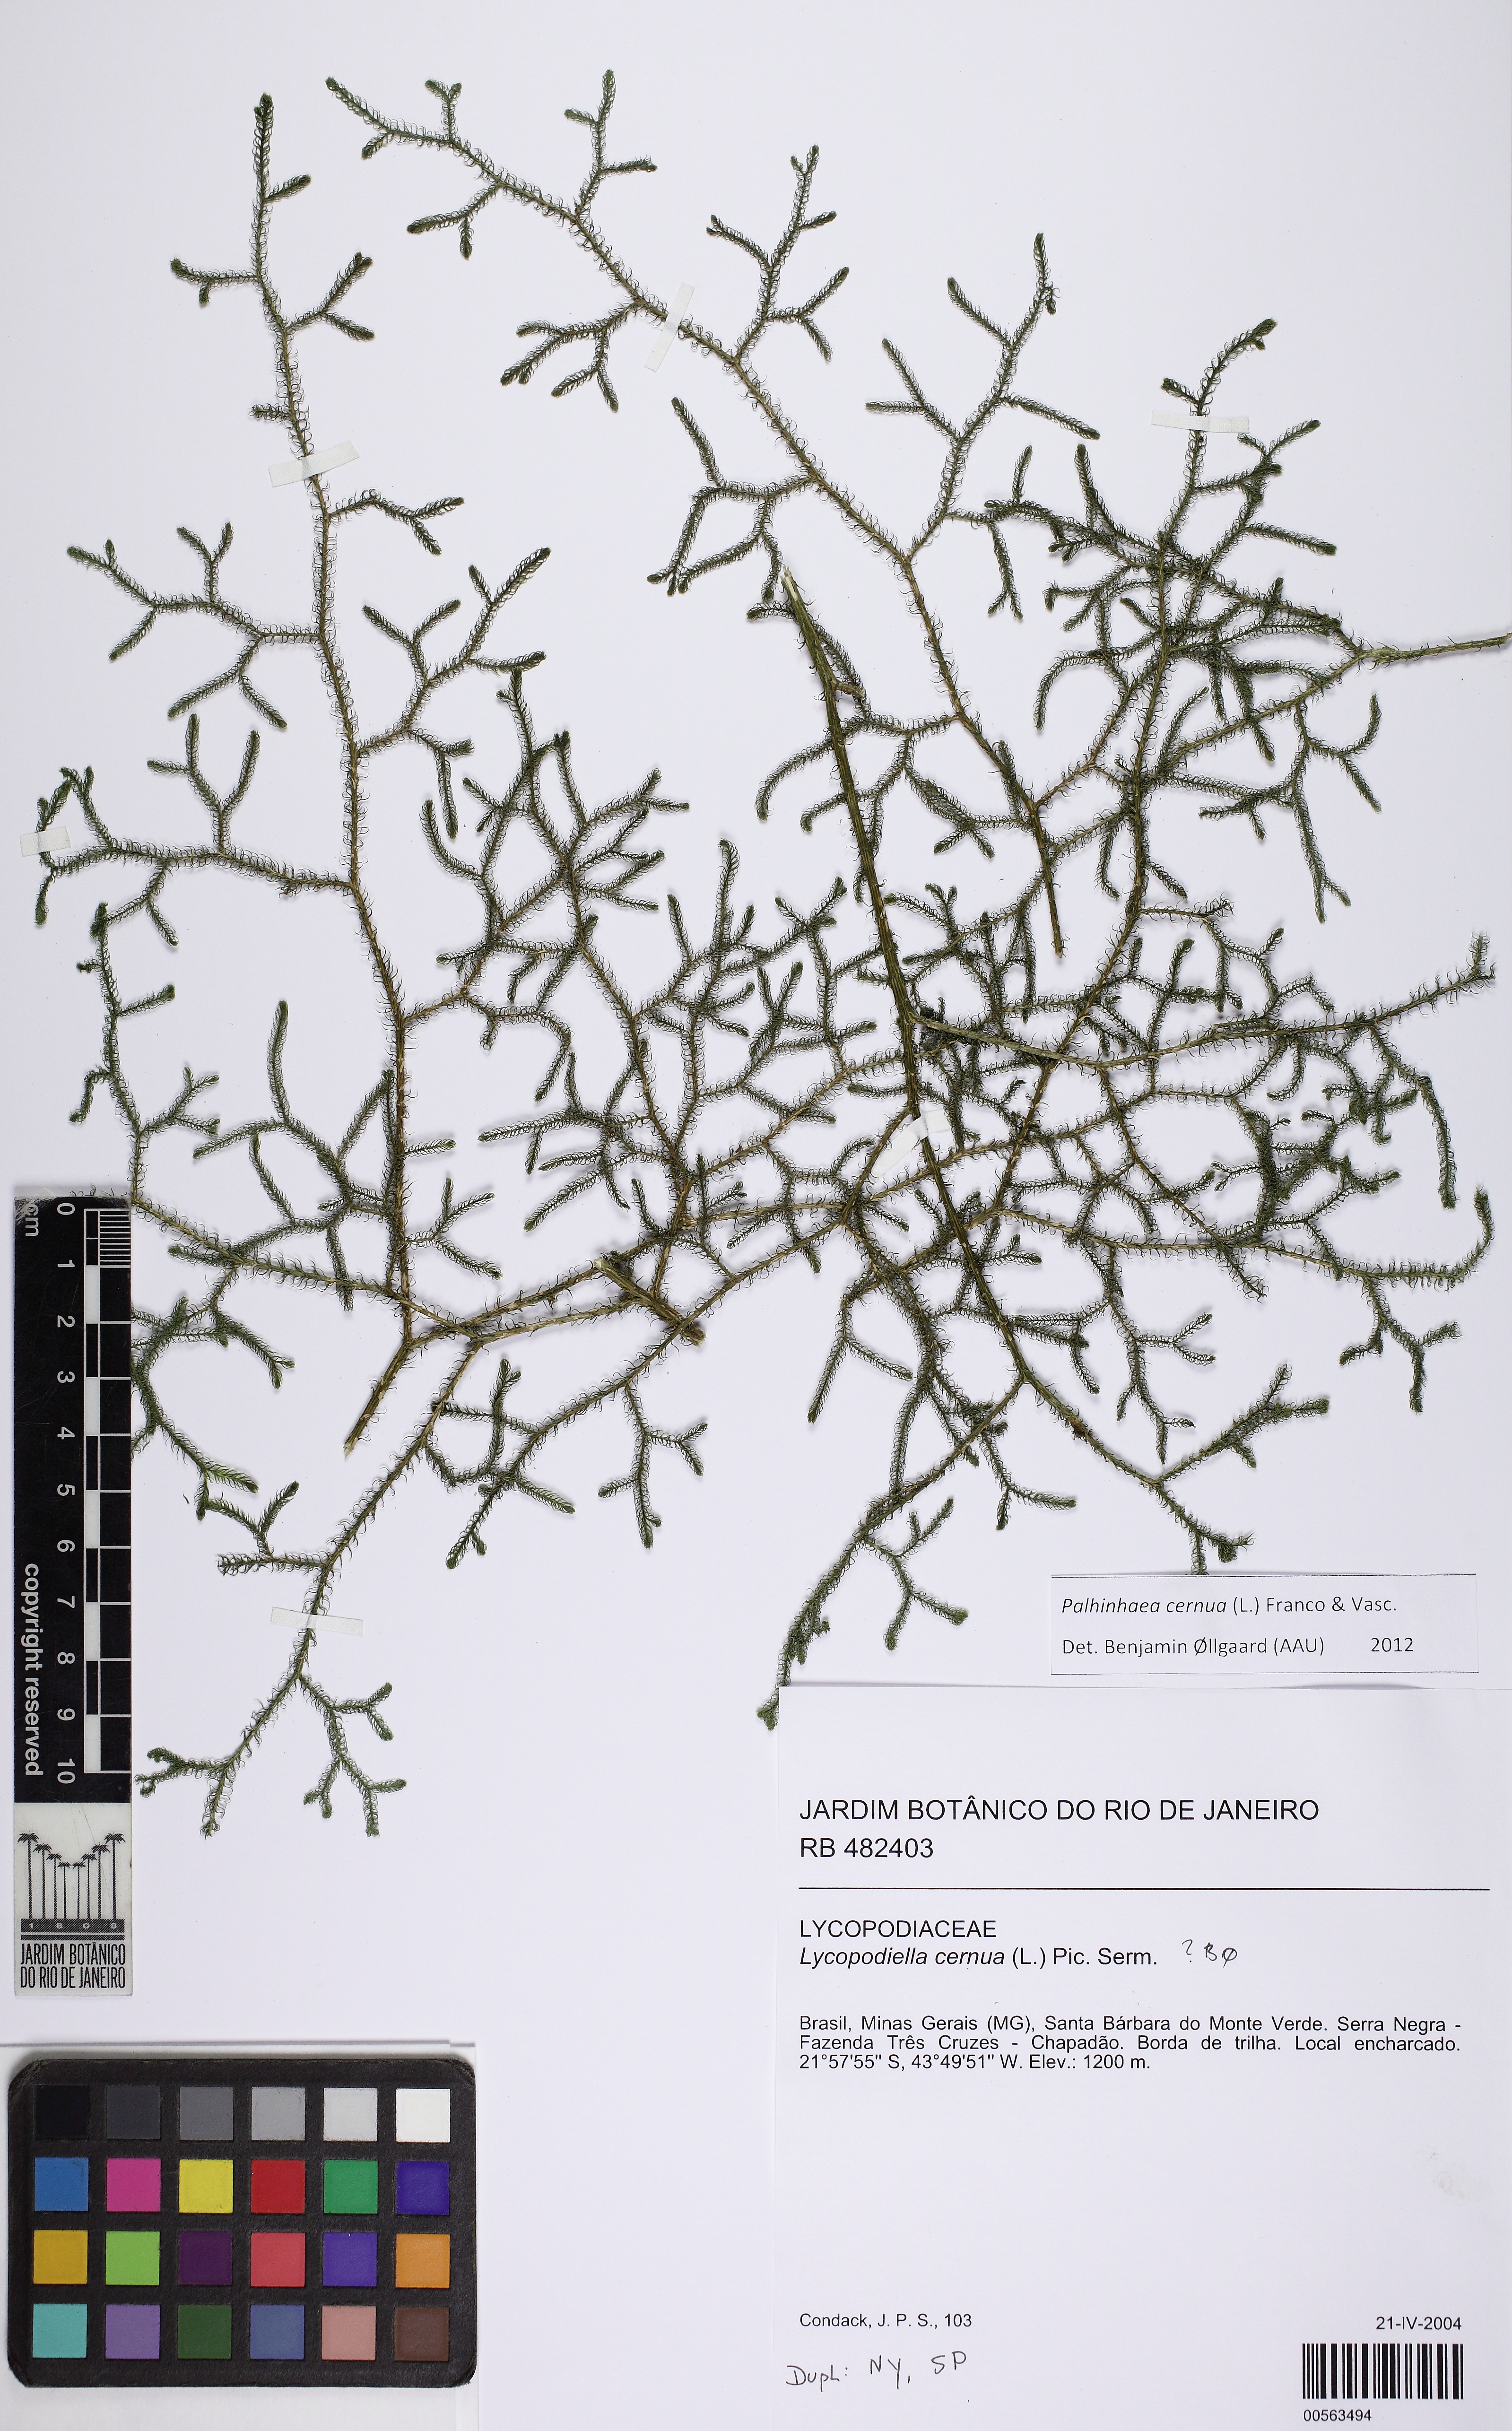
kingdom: Plantae
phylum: Tracheophyta
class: Lycopodiopsida
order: Lycopodiales
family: Lycopodiaceae
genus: Palhinhaea
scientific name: Palhinhaea cernua
